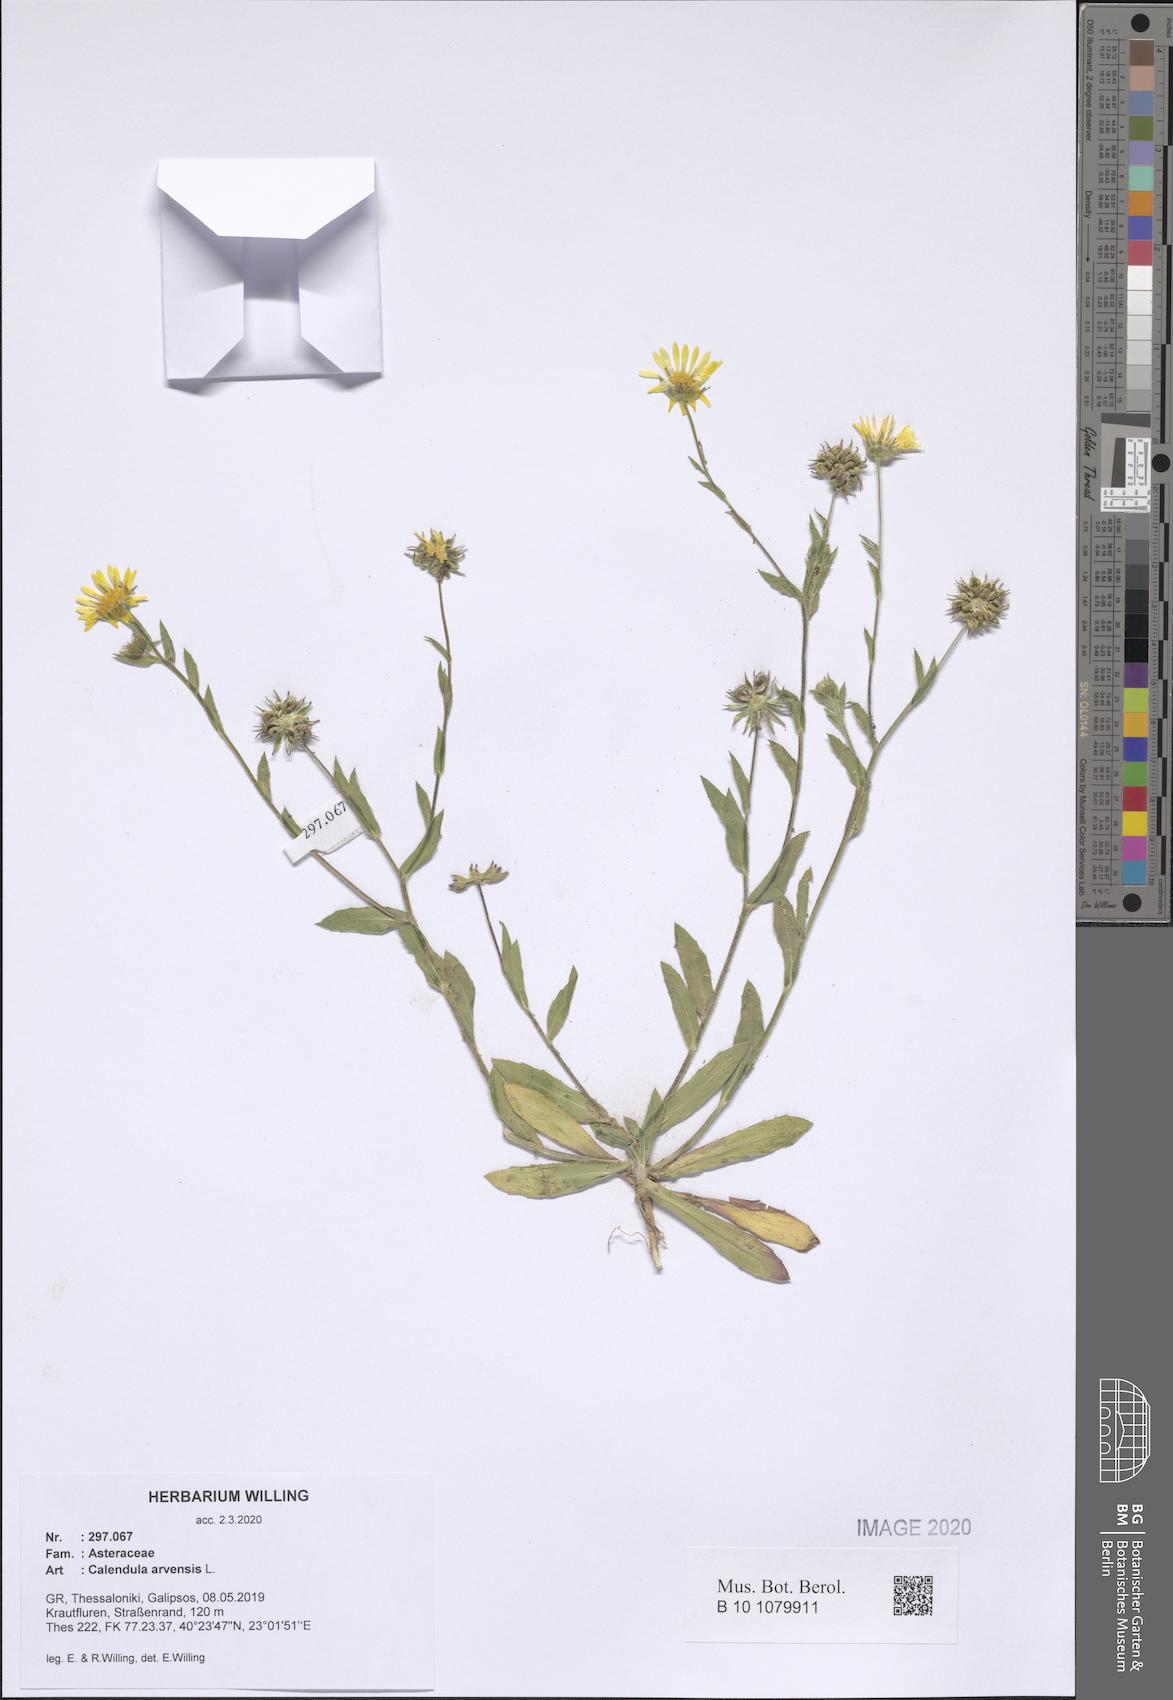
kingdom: Plantae
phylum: Tracheophyta
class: Magnoliopsida
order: Asterales
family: Asteraceae
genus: Calendula
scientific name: Calendula arvensis
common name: Field marigold
